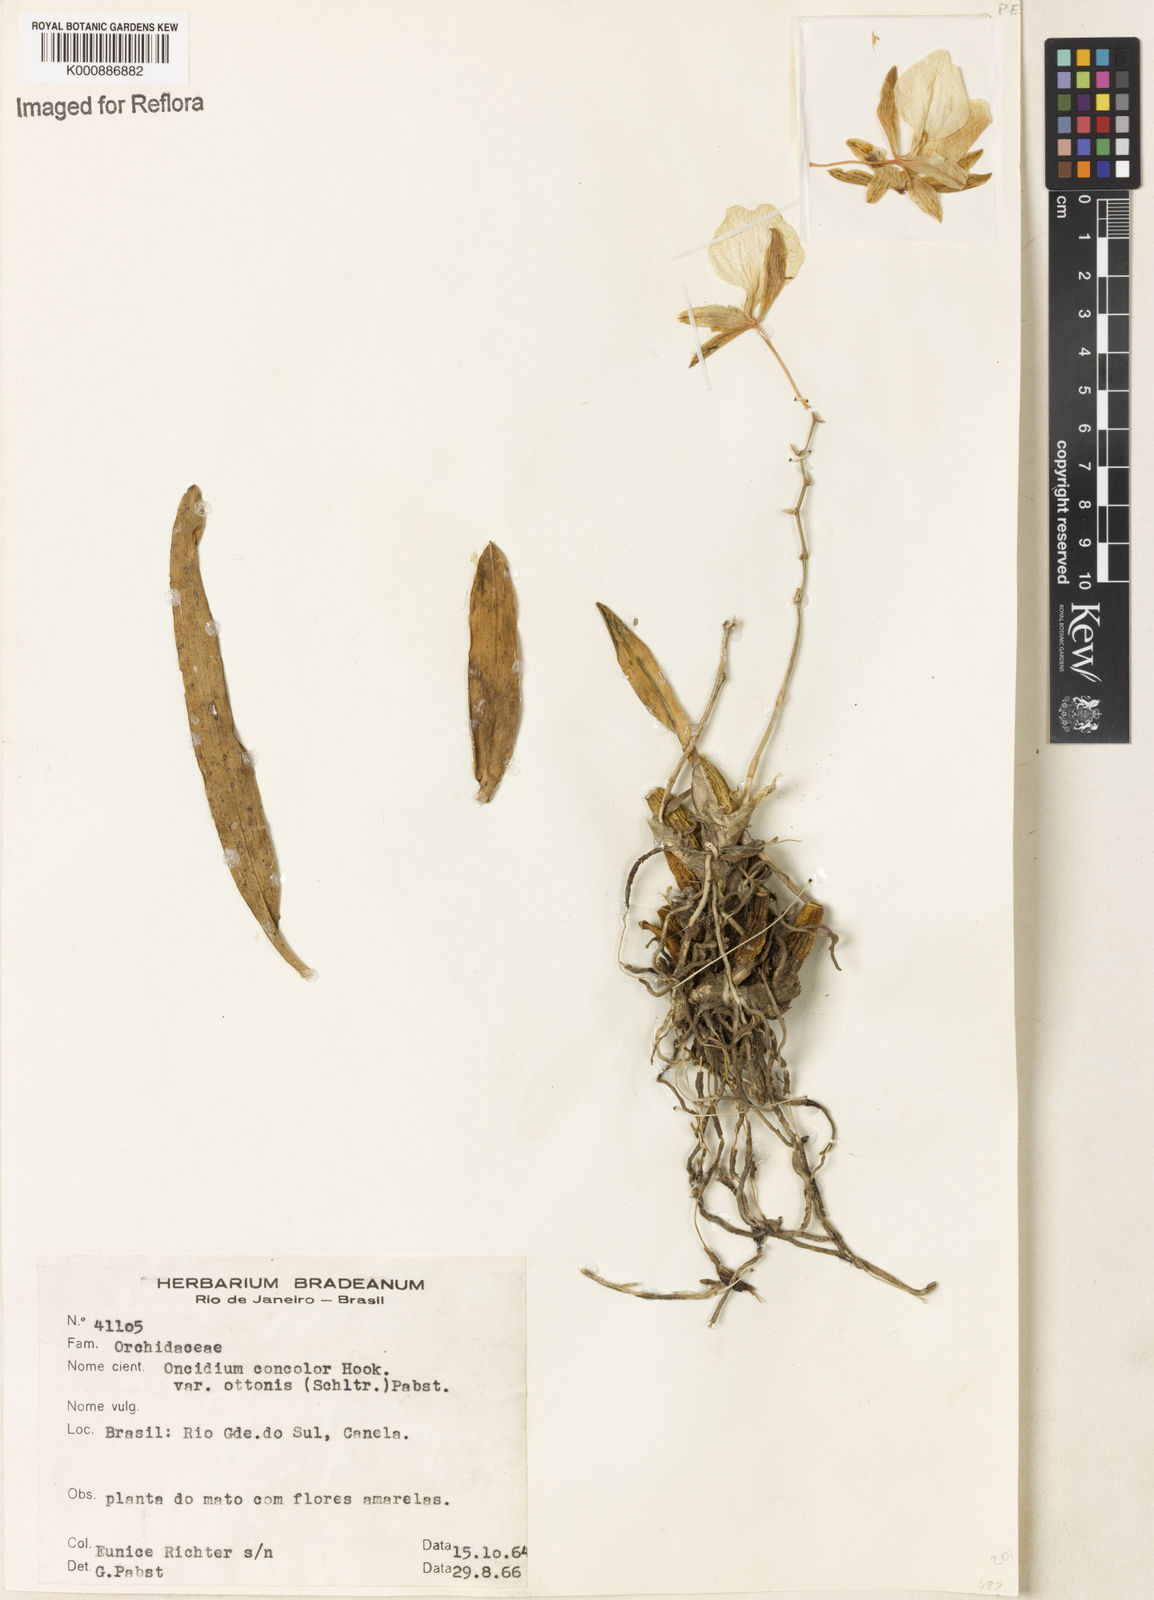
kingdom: Plantae
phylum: Tracheophyta
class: Liliopsida
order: Asparagales
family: Orchidaceae
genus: Gomesa
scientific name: Gomesa concolor
